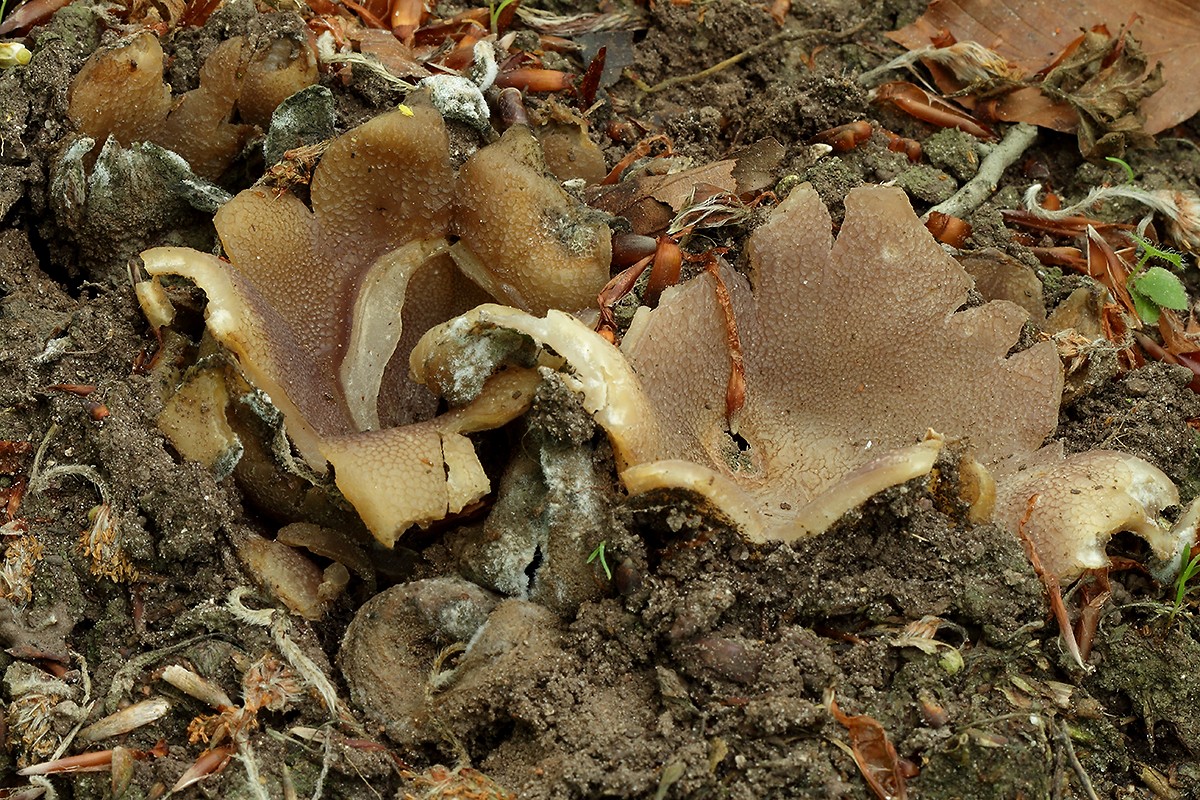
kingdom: Fungi
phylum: Ascomycota
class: Pezizomycetes
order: Pezizales
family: Pezizaceae
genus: Sarcosphaera
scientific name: Sarcosphaera coronaria
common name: stjernebæger
